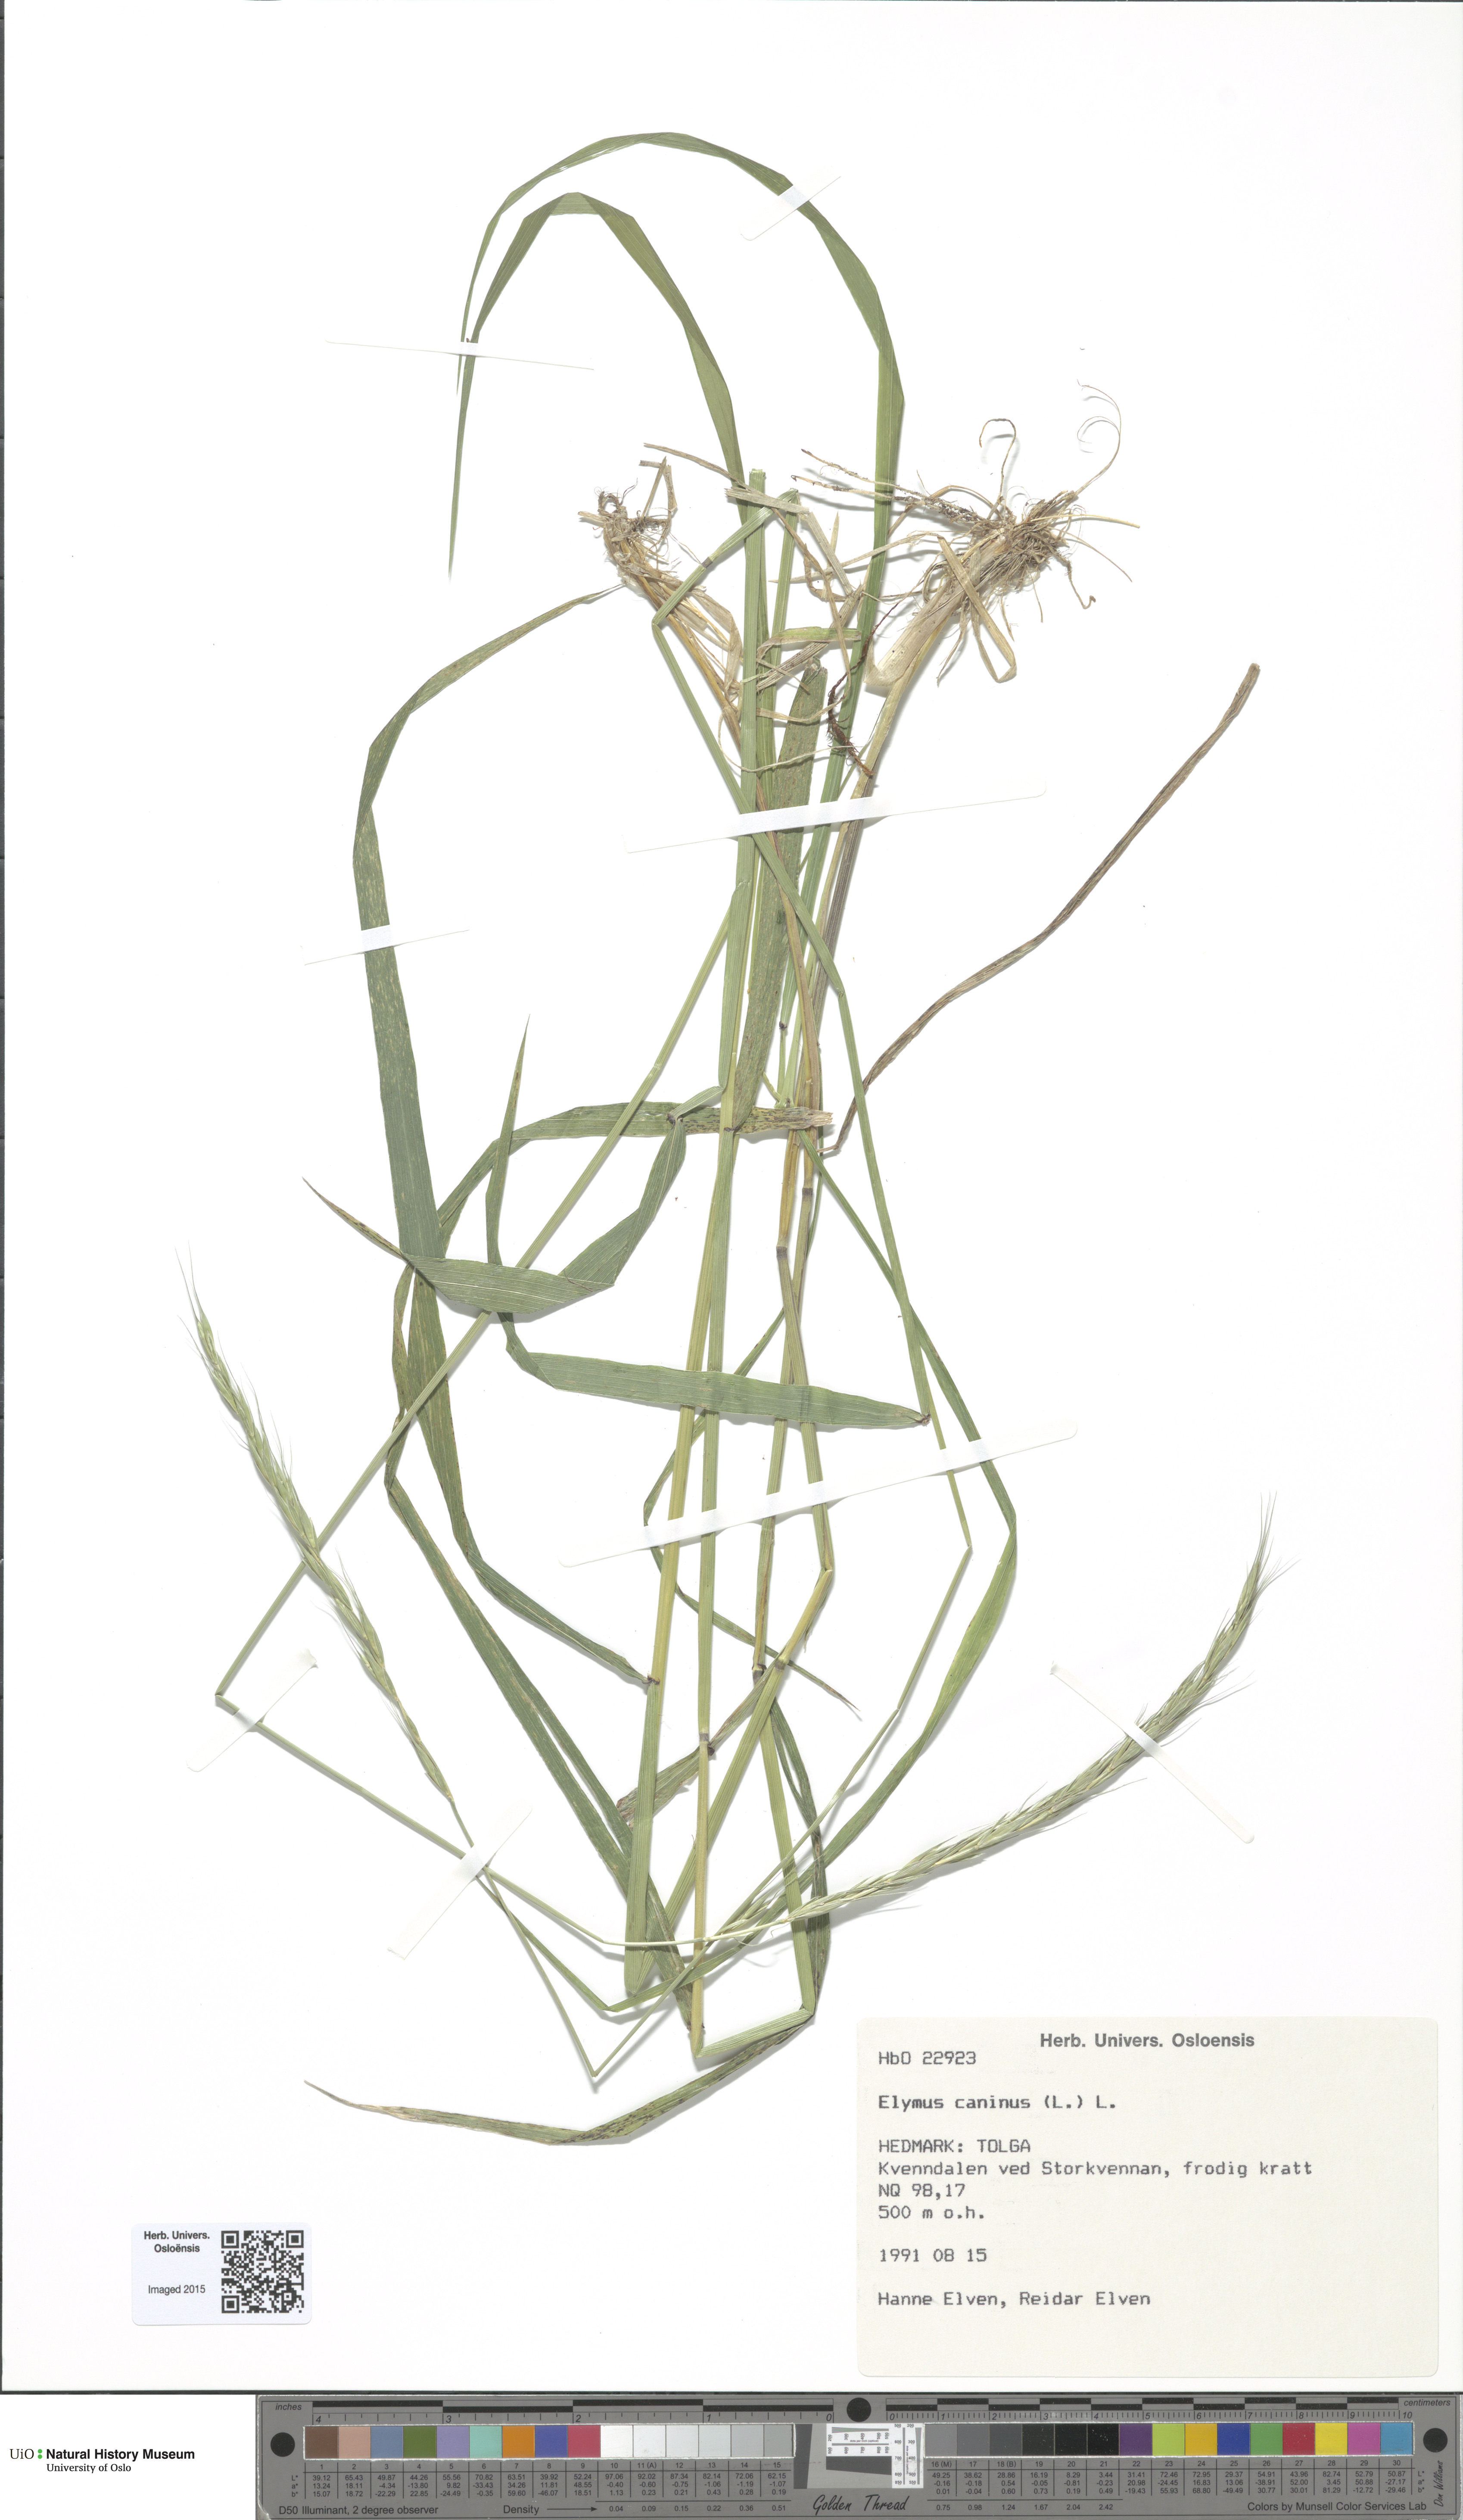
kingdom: Plantae
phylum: Tracheophyta
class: Liliopsida
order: Poales
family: Poaceae
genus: Elymus
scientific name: Elymus caninus
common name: Bearded couch
